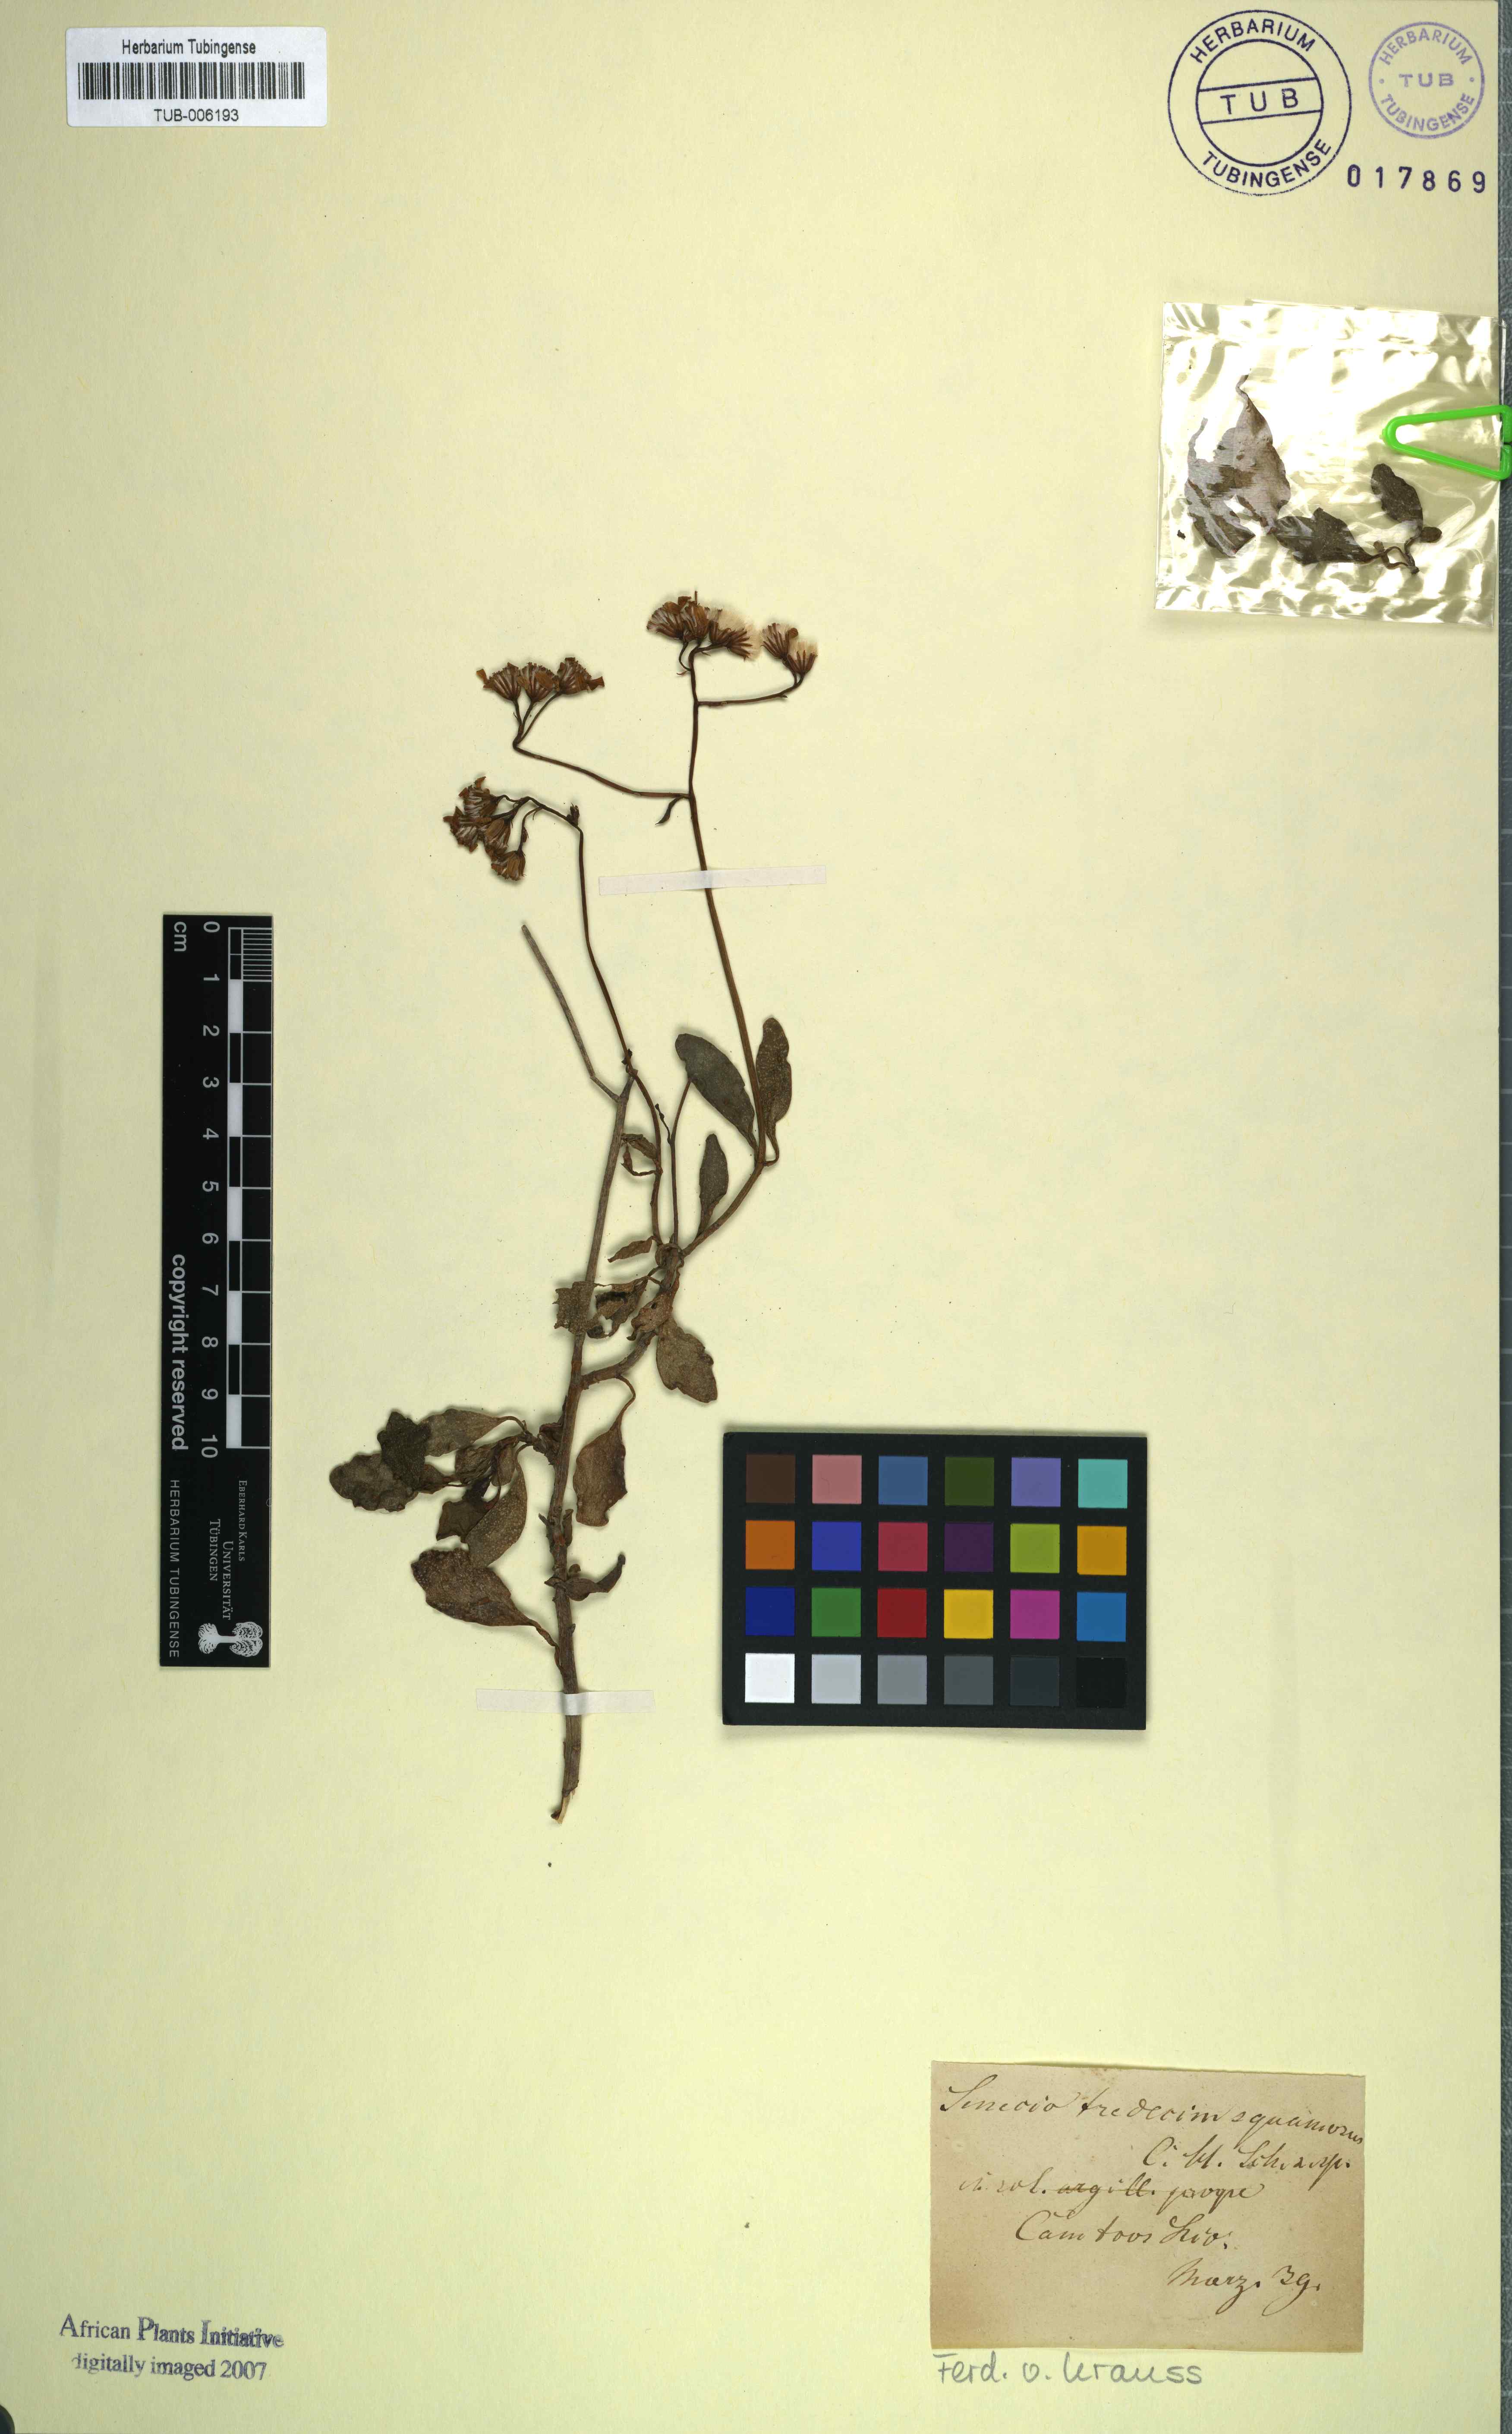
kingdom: Plantae
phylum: Tracheophyta
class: Magnoliopsida
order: Asterales
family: Asteraceae
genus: Senecio
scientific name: Senecio angulatus
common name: Climbing groundsel
